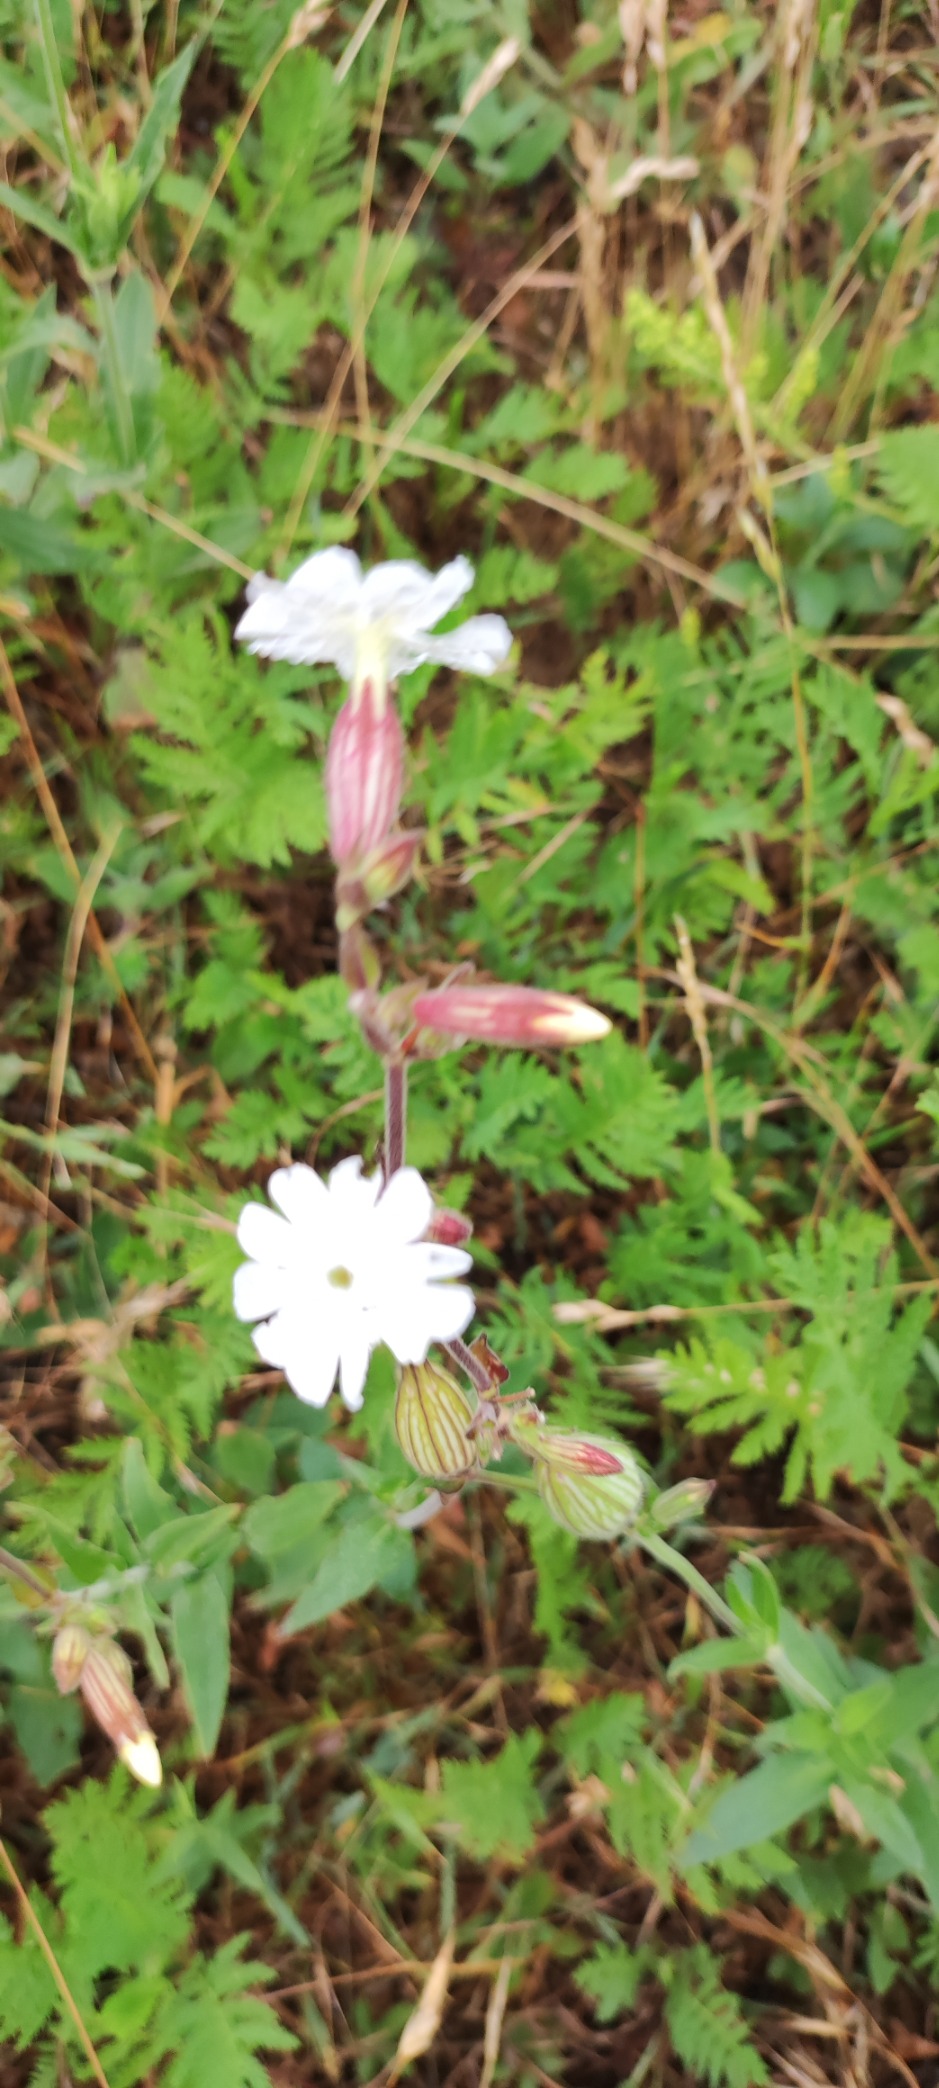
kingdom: Plantae
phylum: Tracheophyta
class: Magnoliopsida
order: Caryophyllales
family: Caryophyllaceae
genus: Silene
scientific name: Silene latifolia
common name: Aftenpragtstjerne
